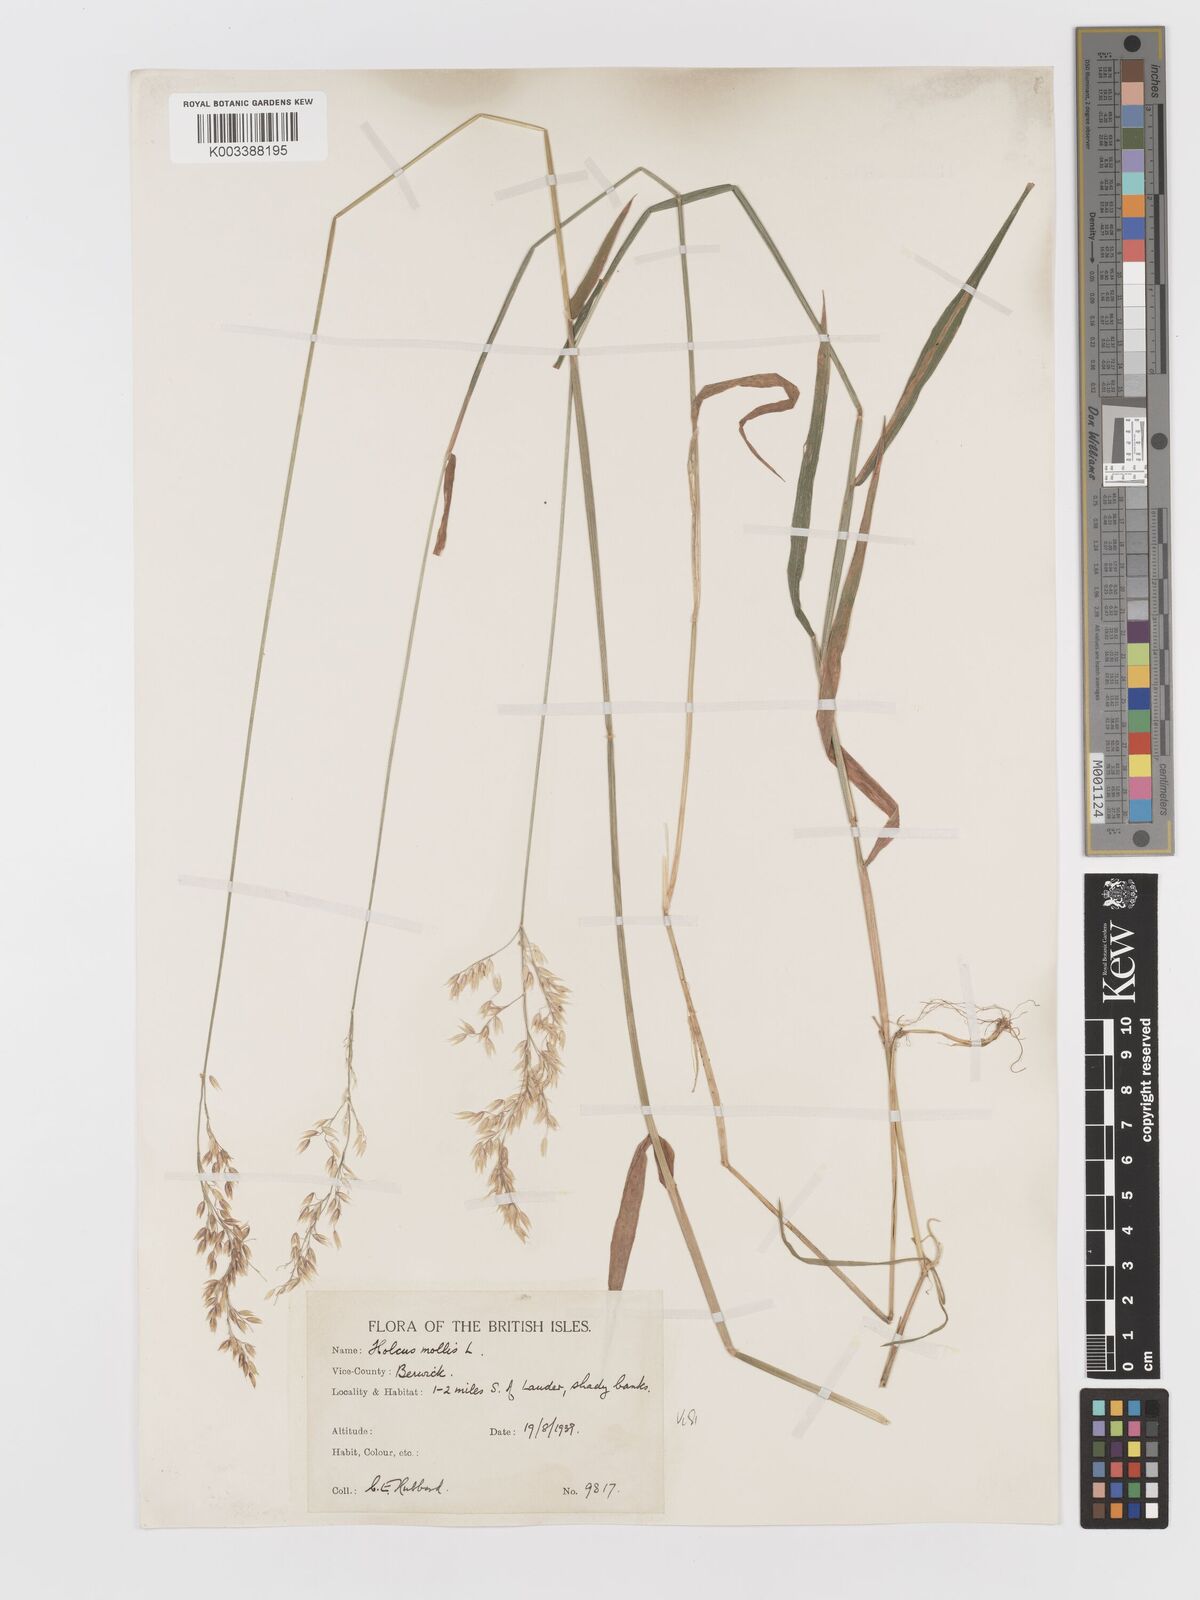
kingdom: Plantae
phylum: Tracheophyta
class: Liliopsida
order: Poales
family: Poaceae
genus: Holcus
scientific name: Holcus mollis
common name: Creeping velvetgrass
